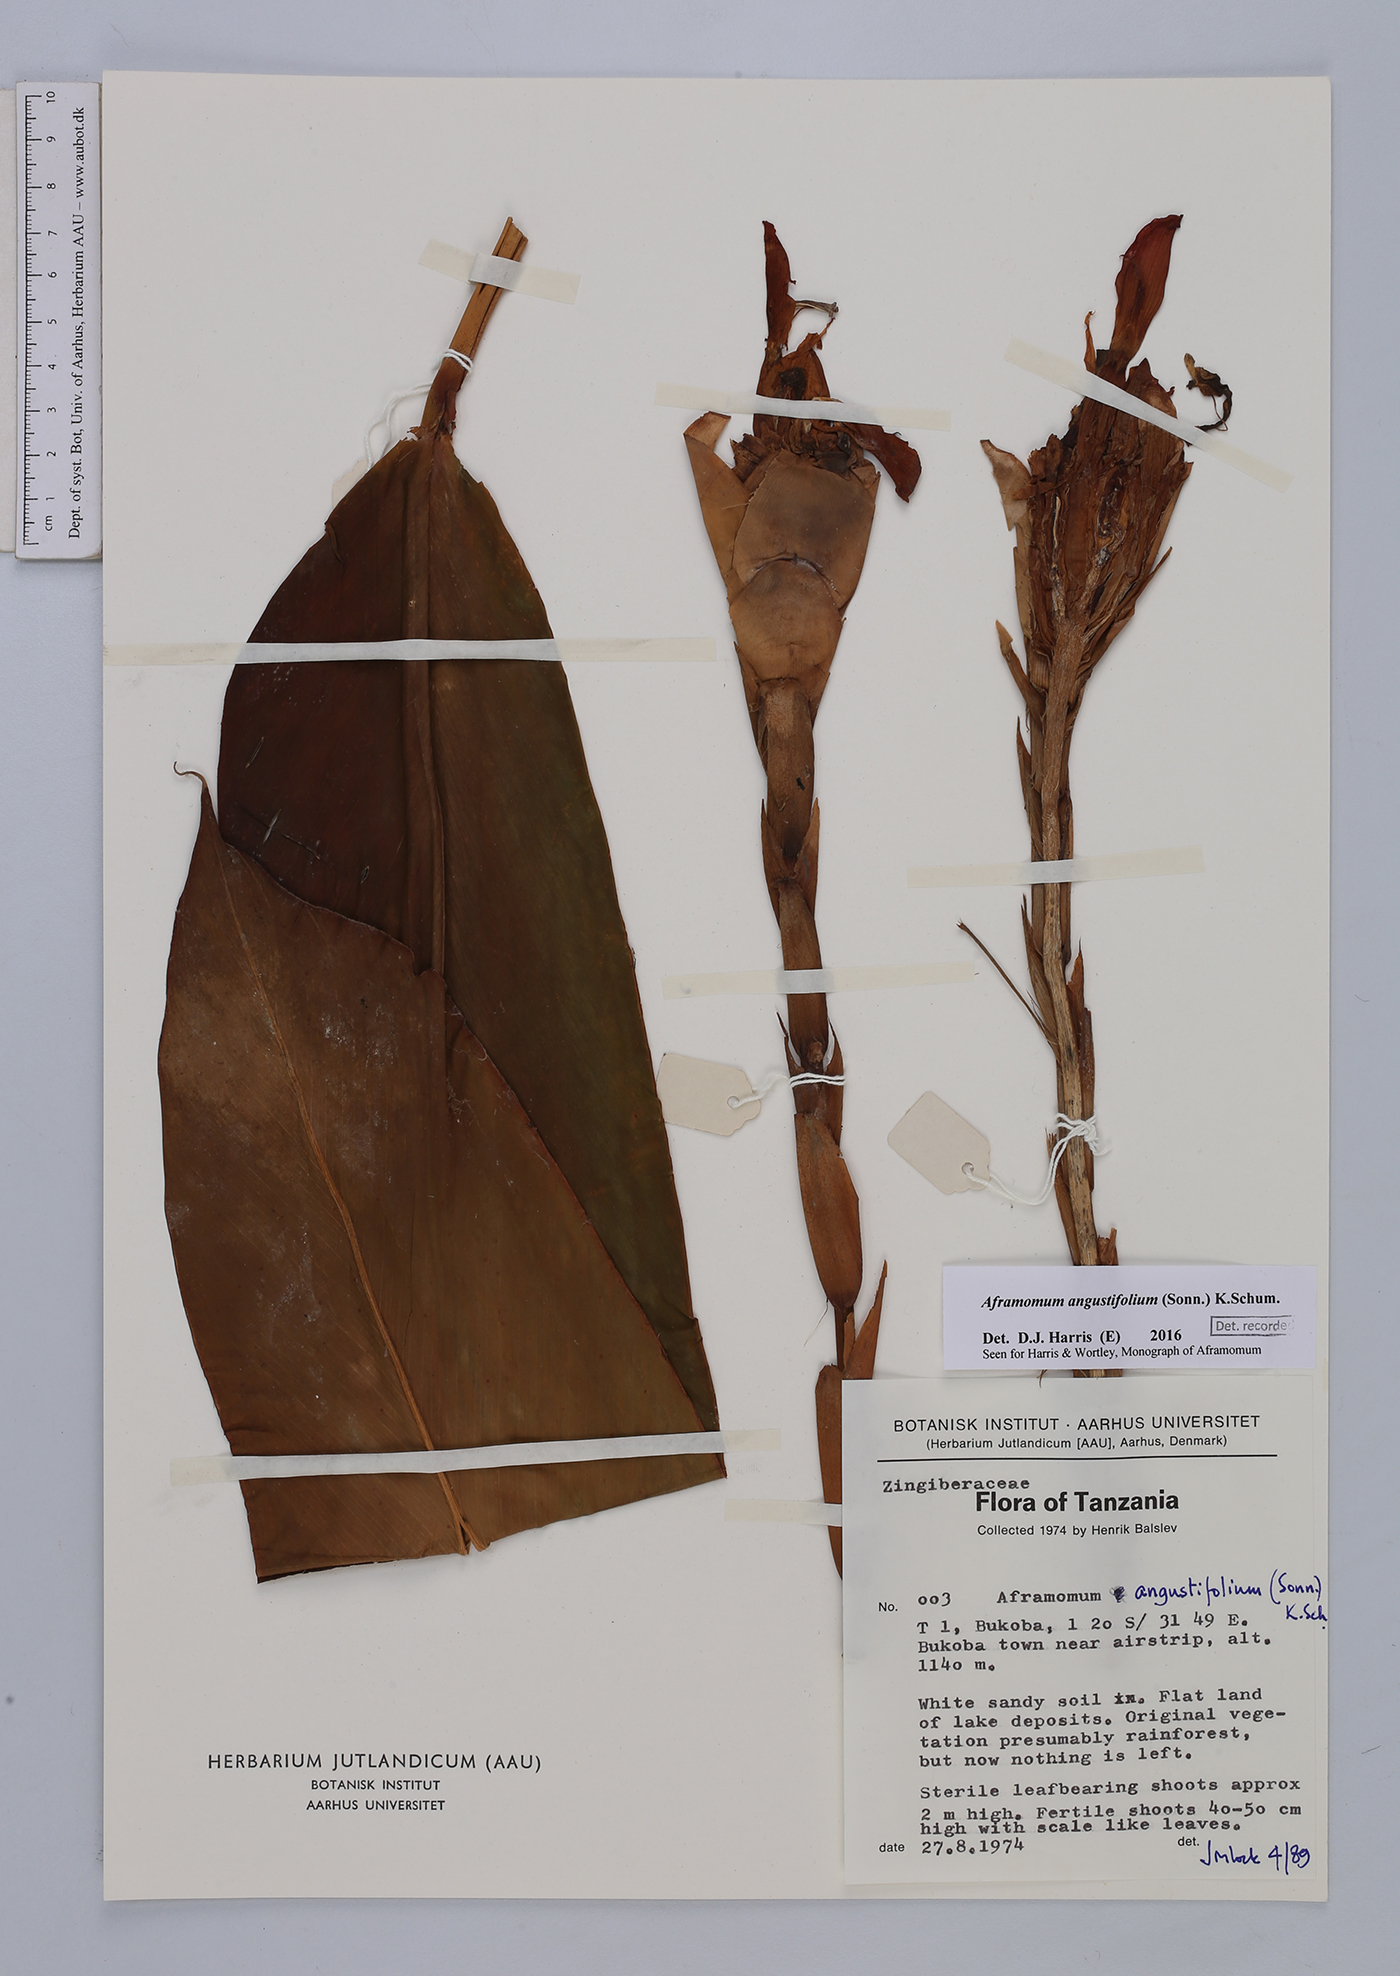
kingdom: Plantae
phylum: Tracheophyta
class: Liliopsida
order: Zingiberales
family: Zingiberaceae
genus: Aframomum
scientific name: Aframomum angustifolium
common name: Guinea grains
